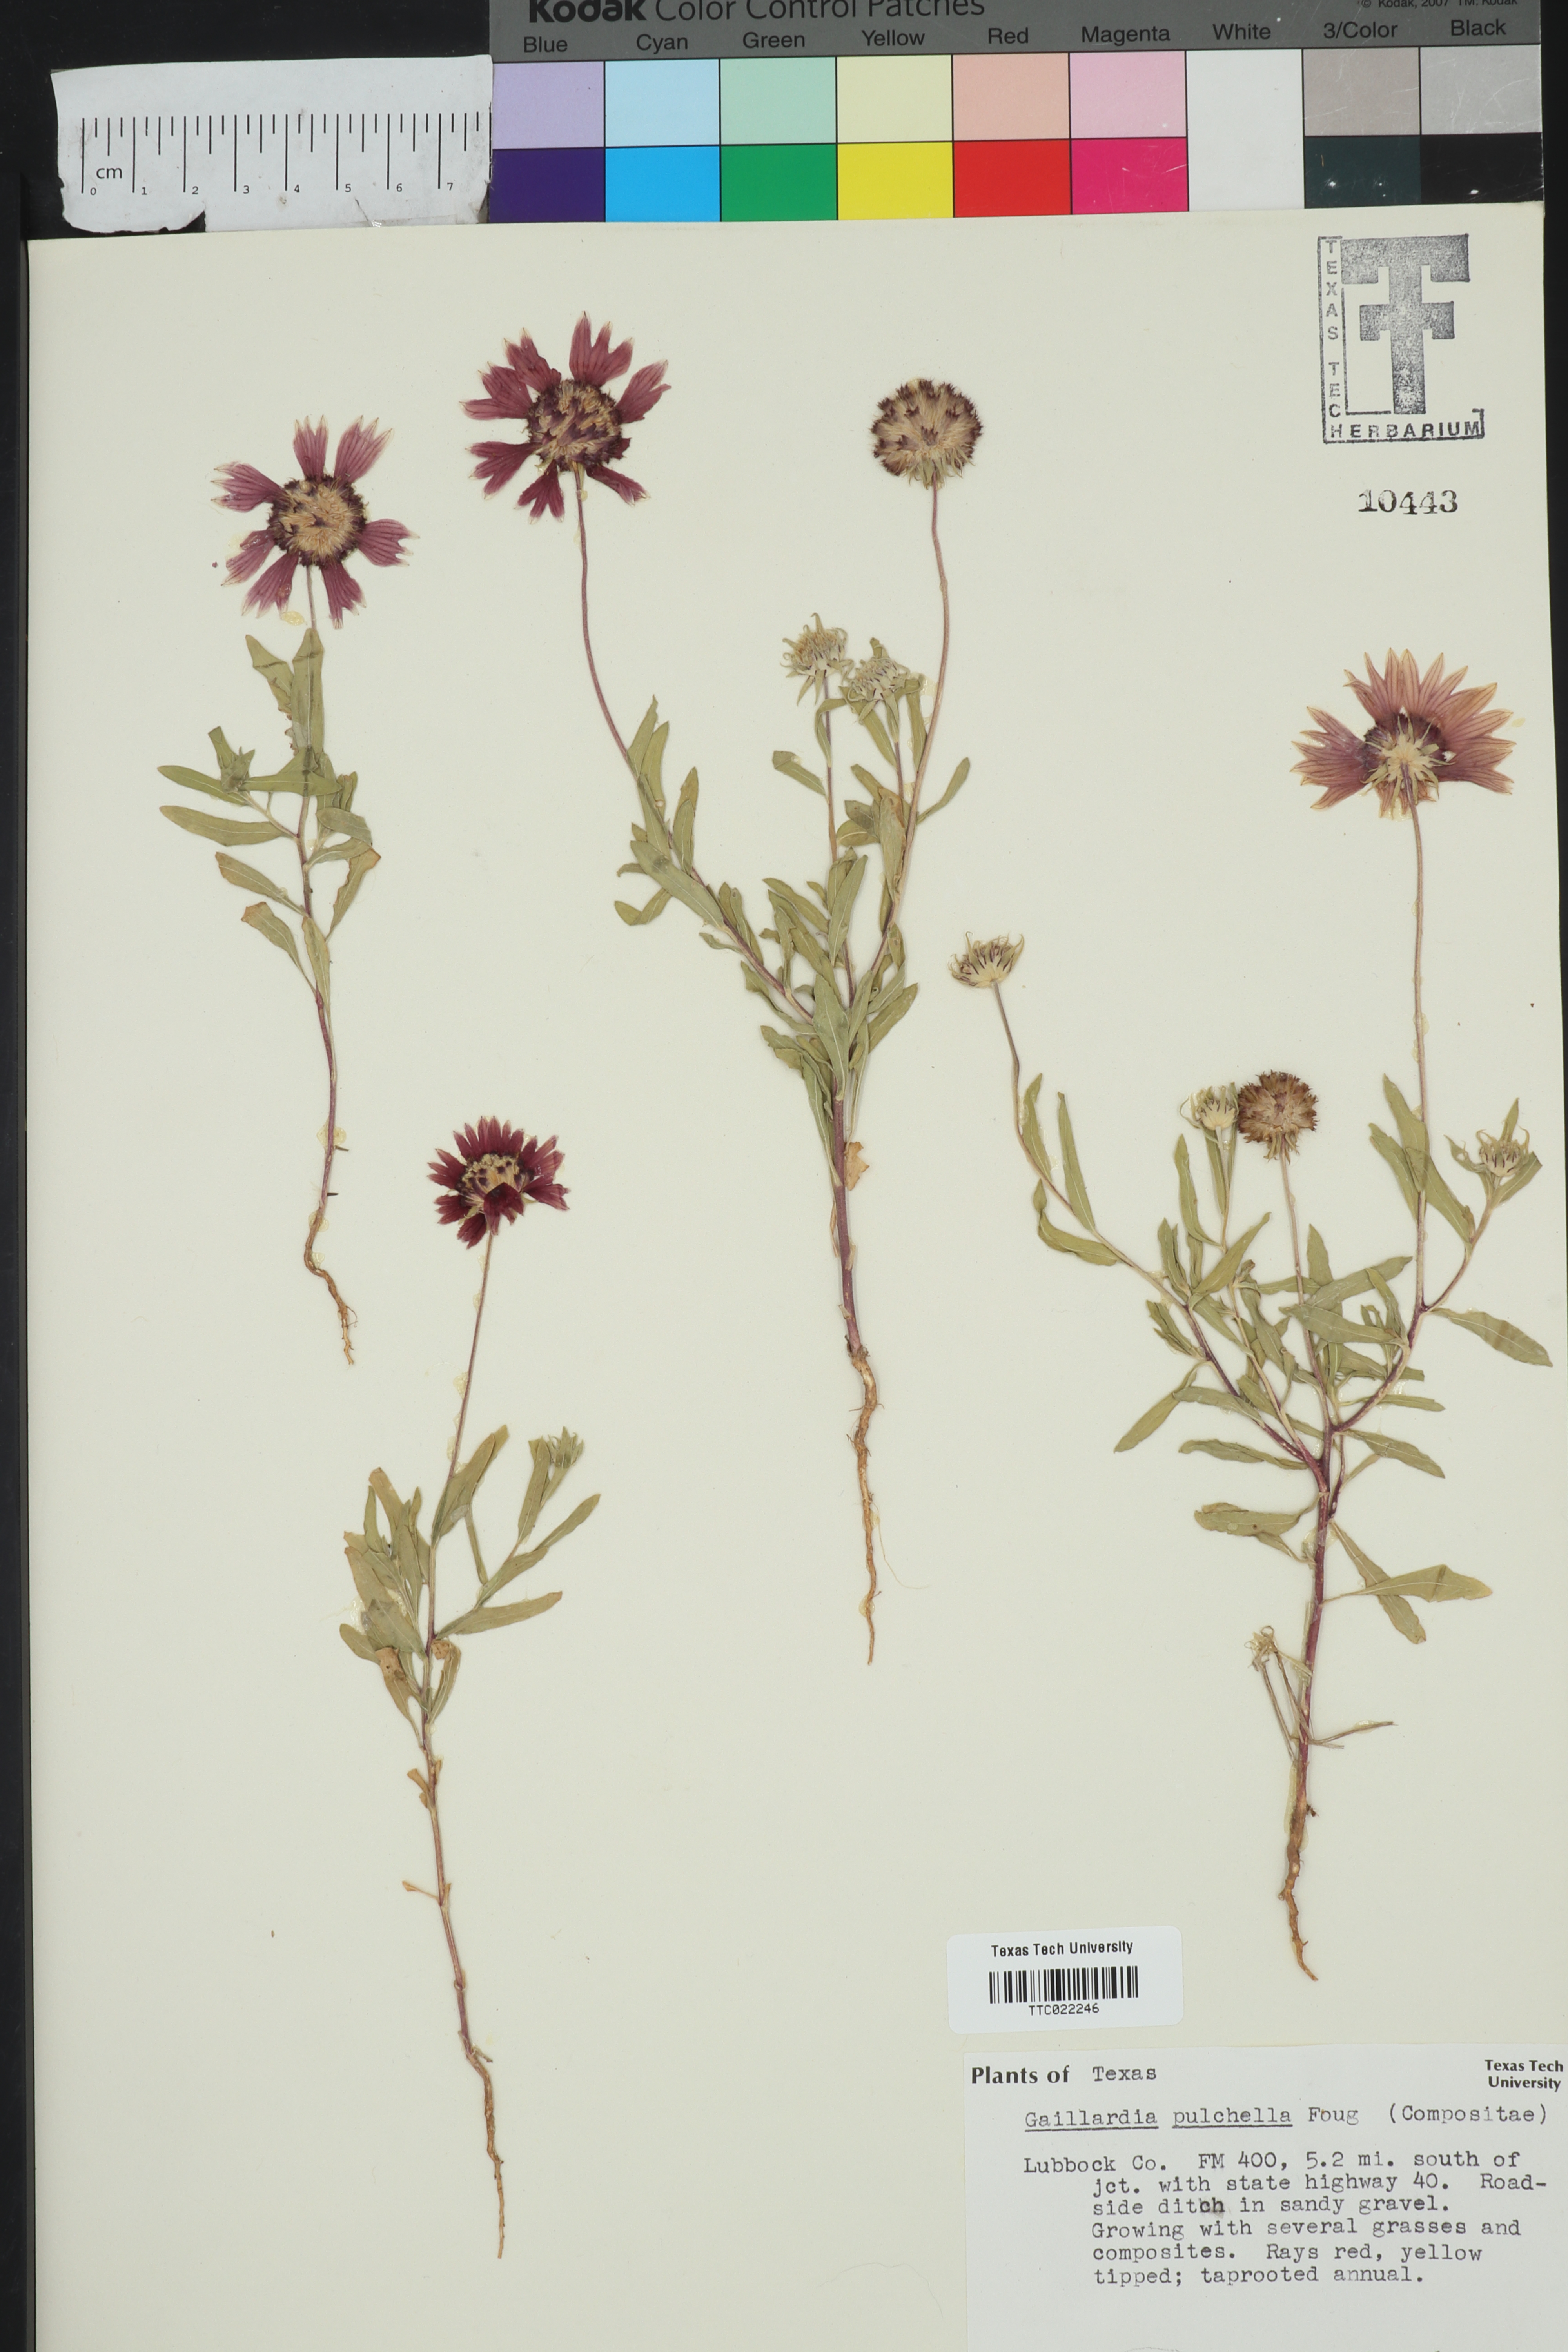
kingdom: Plantae
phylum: Tracheophyta
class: Magnoliopsida
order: Asterales
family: Asteraceae
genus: Gaillardia
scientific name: Gaillardia pulchella
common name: Firewheel
